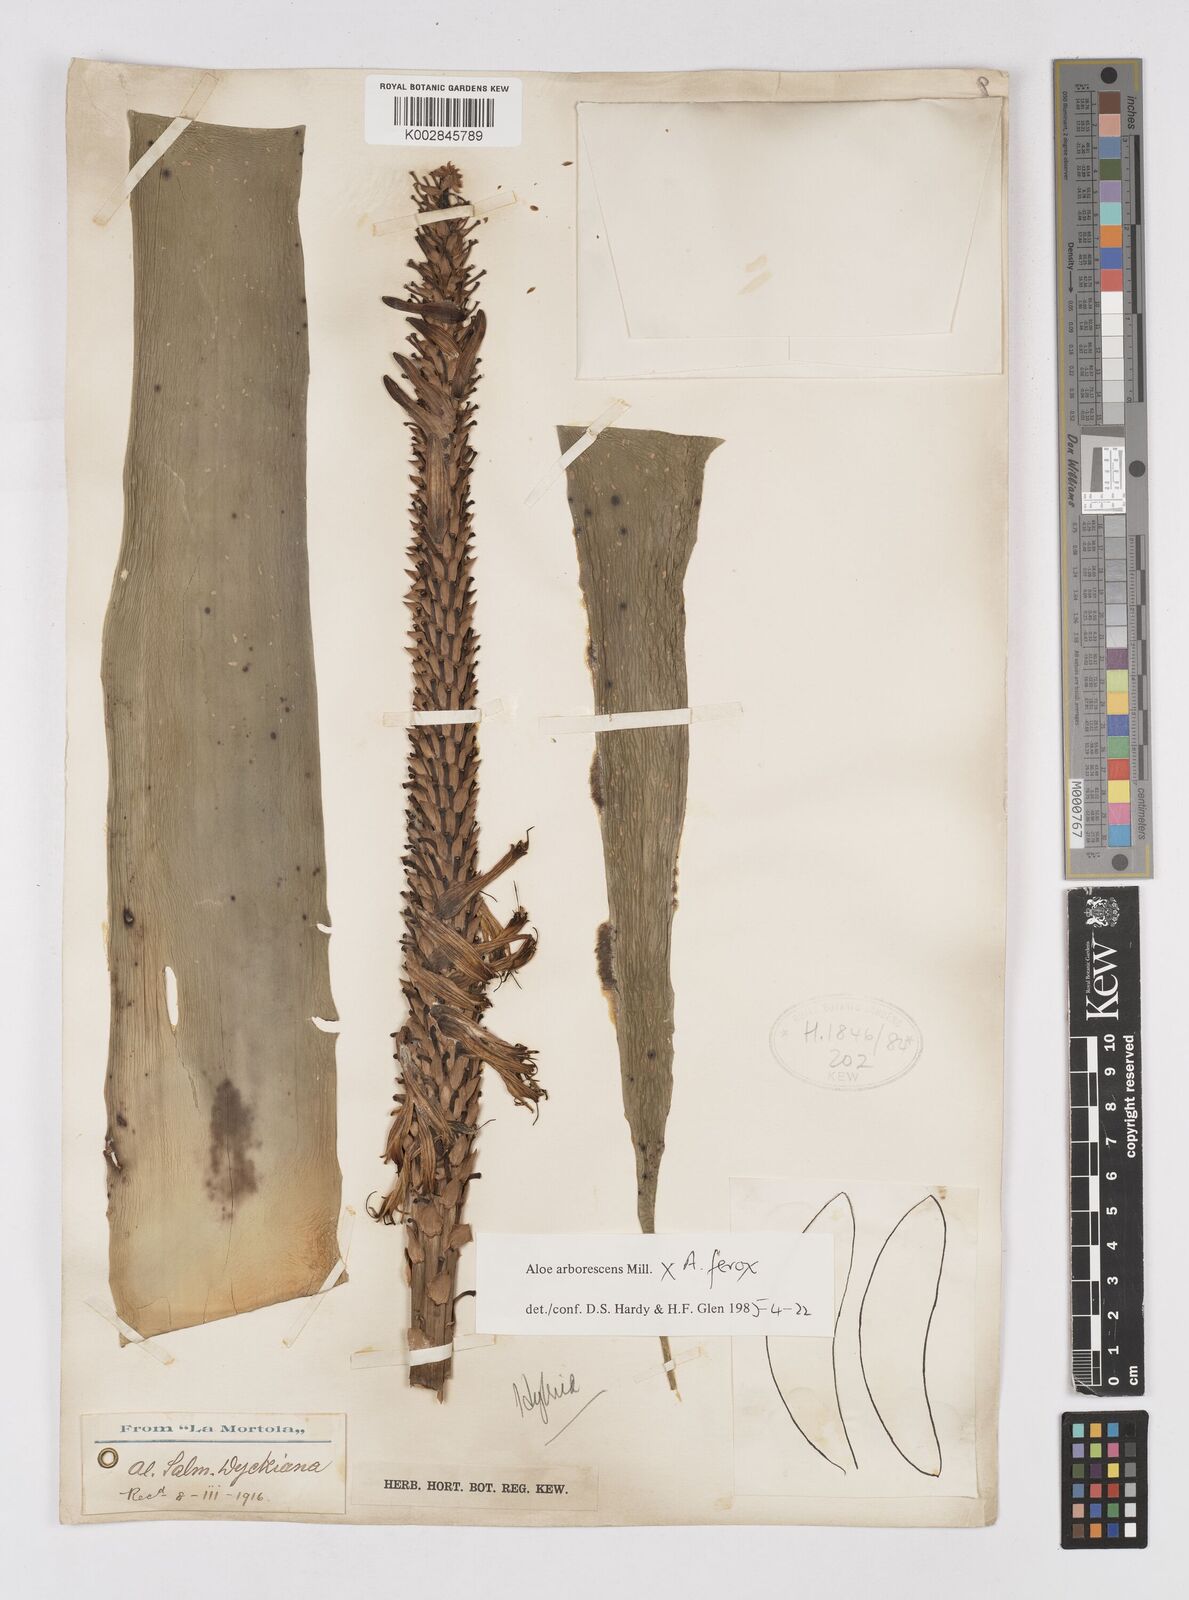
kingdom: Plantae
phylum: Tracheophyta
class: Liliopsida
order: Asparagales
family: Asphodelaceae
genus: Aloe
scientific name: Aloe arborescens
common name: Candelabra aloe
